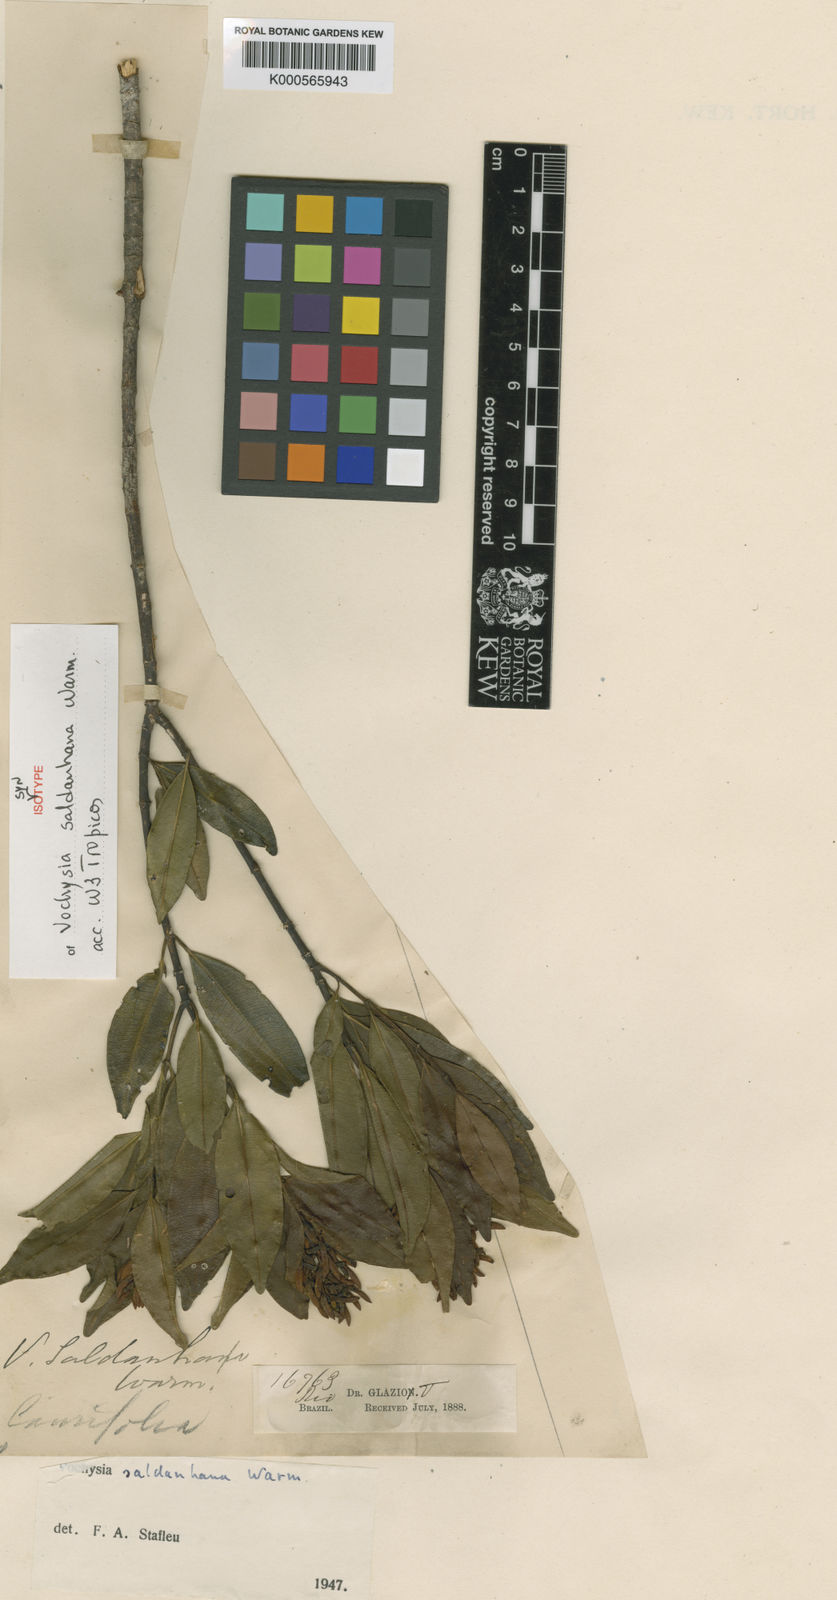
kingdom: Plantae
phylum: Tracheophyta
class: Magnoliopsida
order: Myrtales
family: Vochysiaceae
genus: Vochysia
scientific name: Vochysia saldanhana
